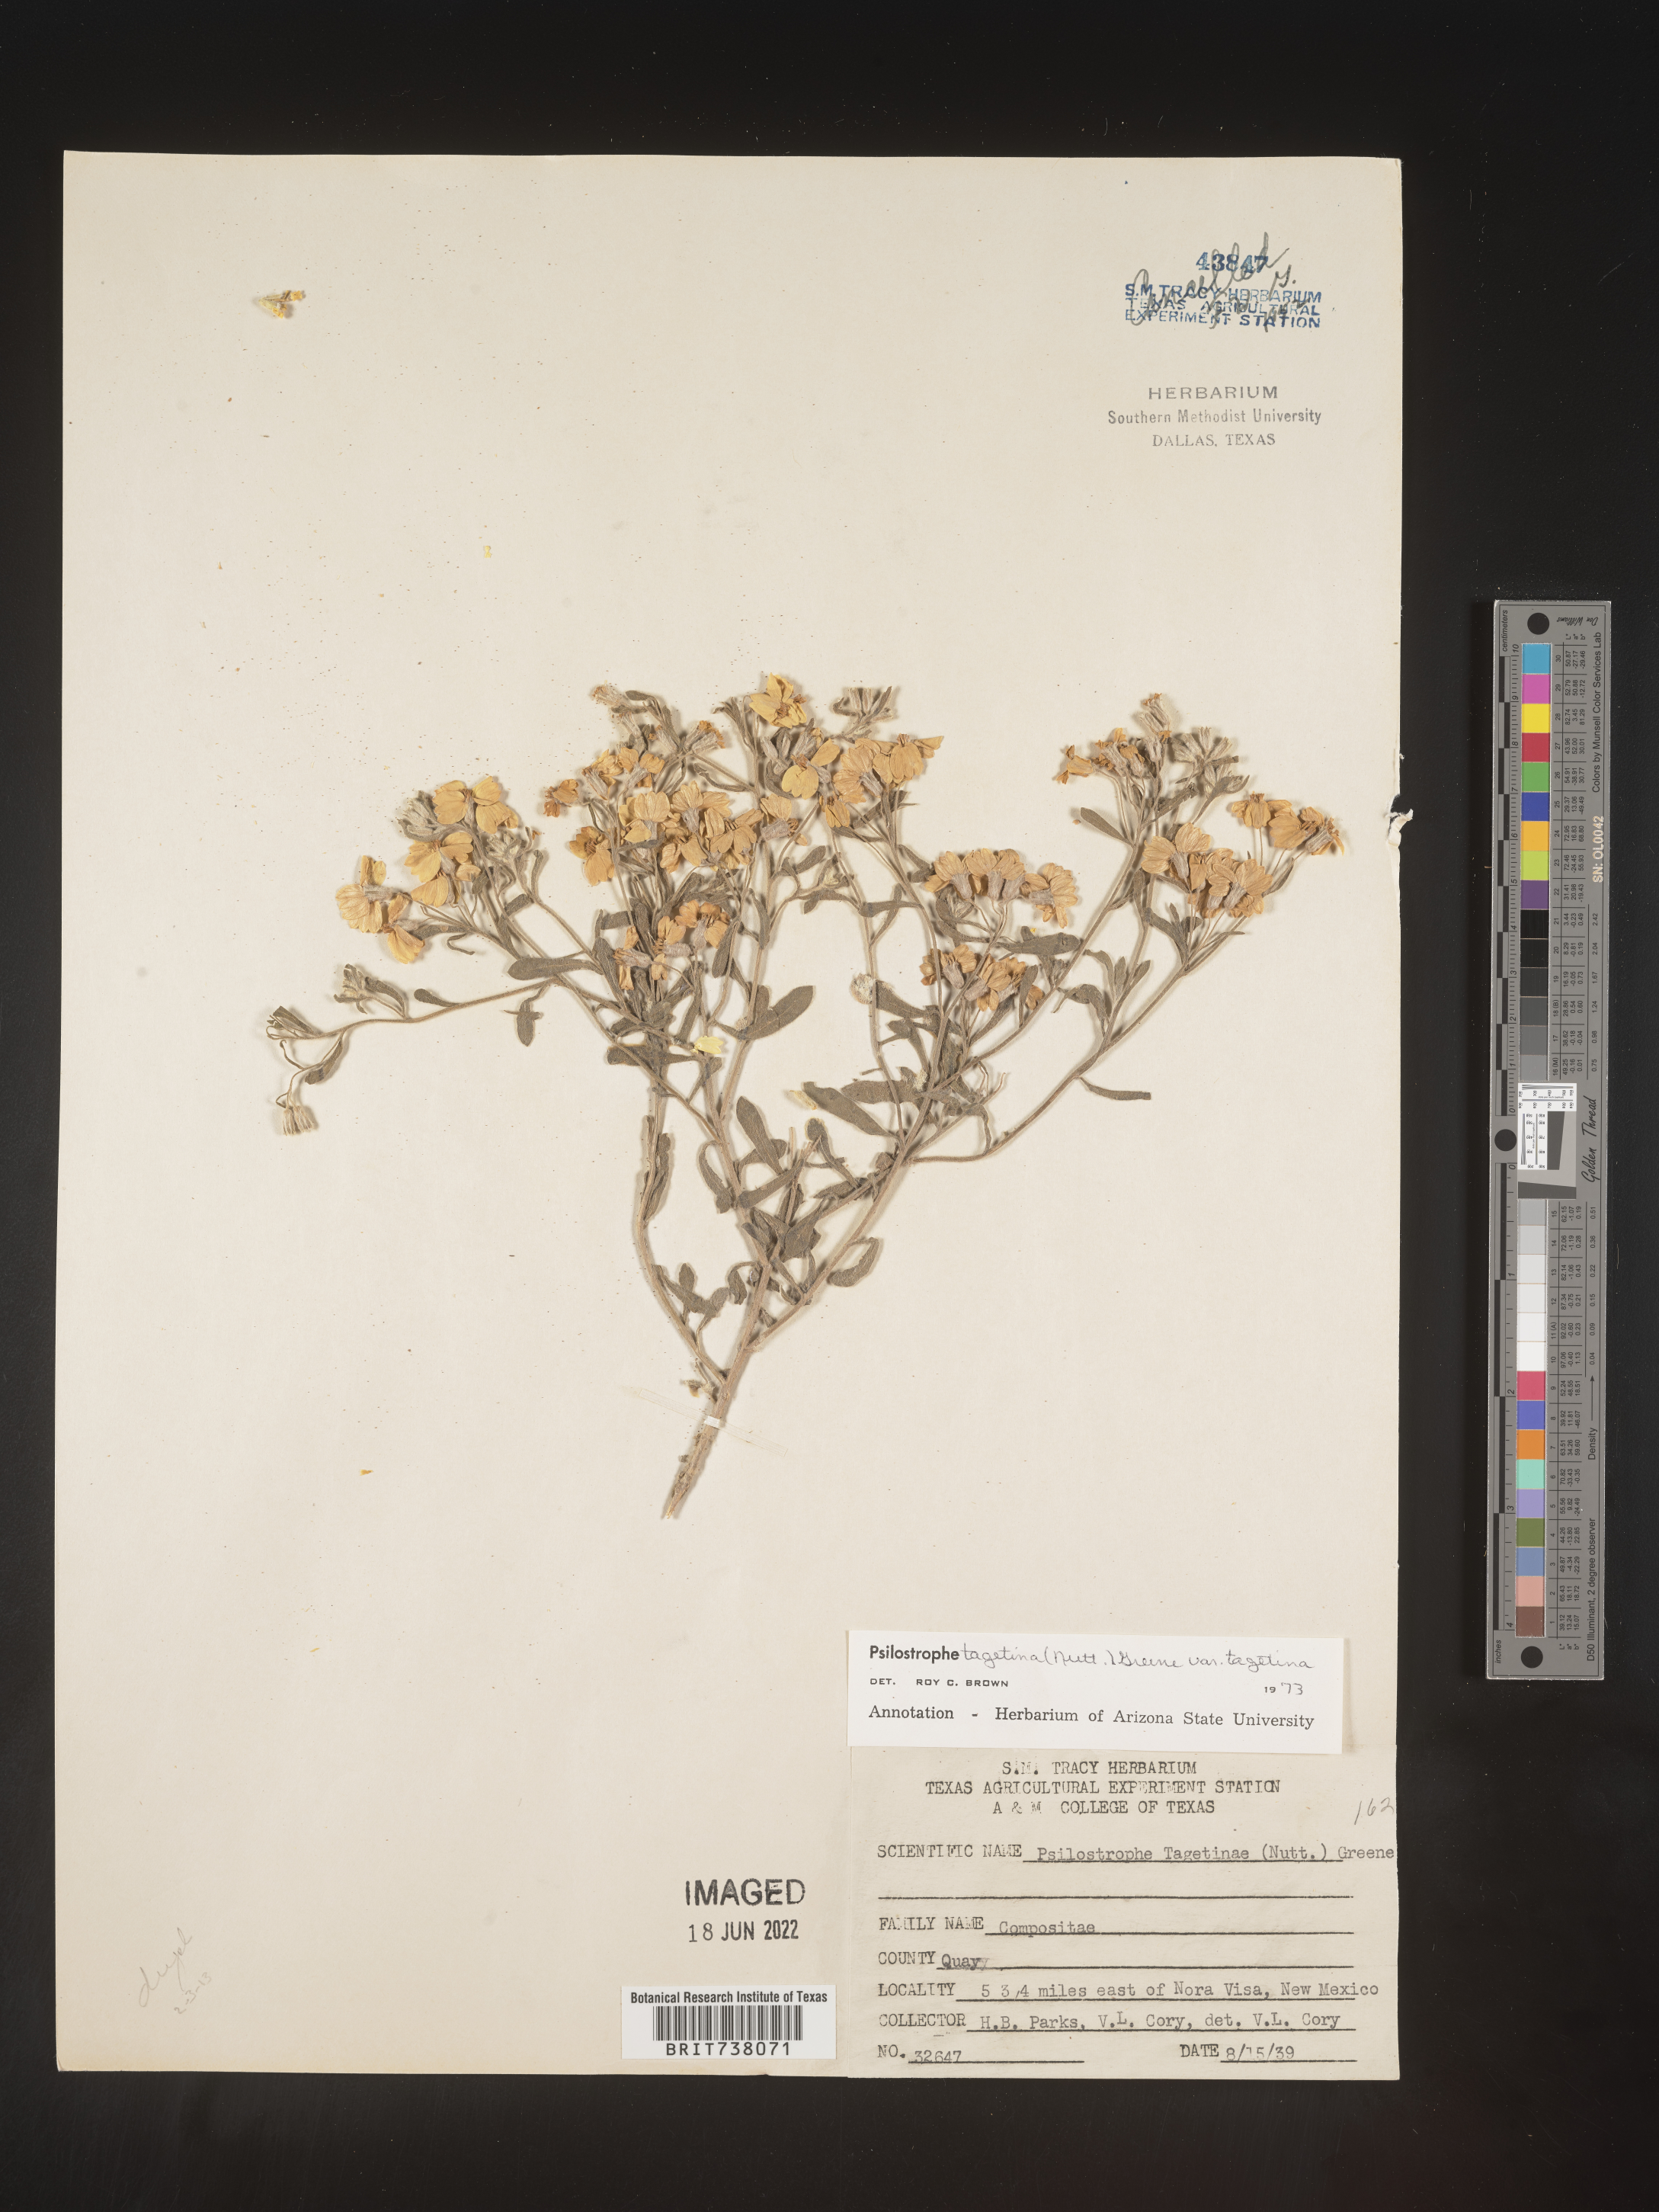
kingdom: Plantae
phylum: Tracheophyta
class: Magnoliopsida
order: Asterales
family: Asteraceae
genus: Psilostrophe
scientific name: Psilostrophe tagetina
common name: Marigold paper-flower
